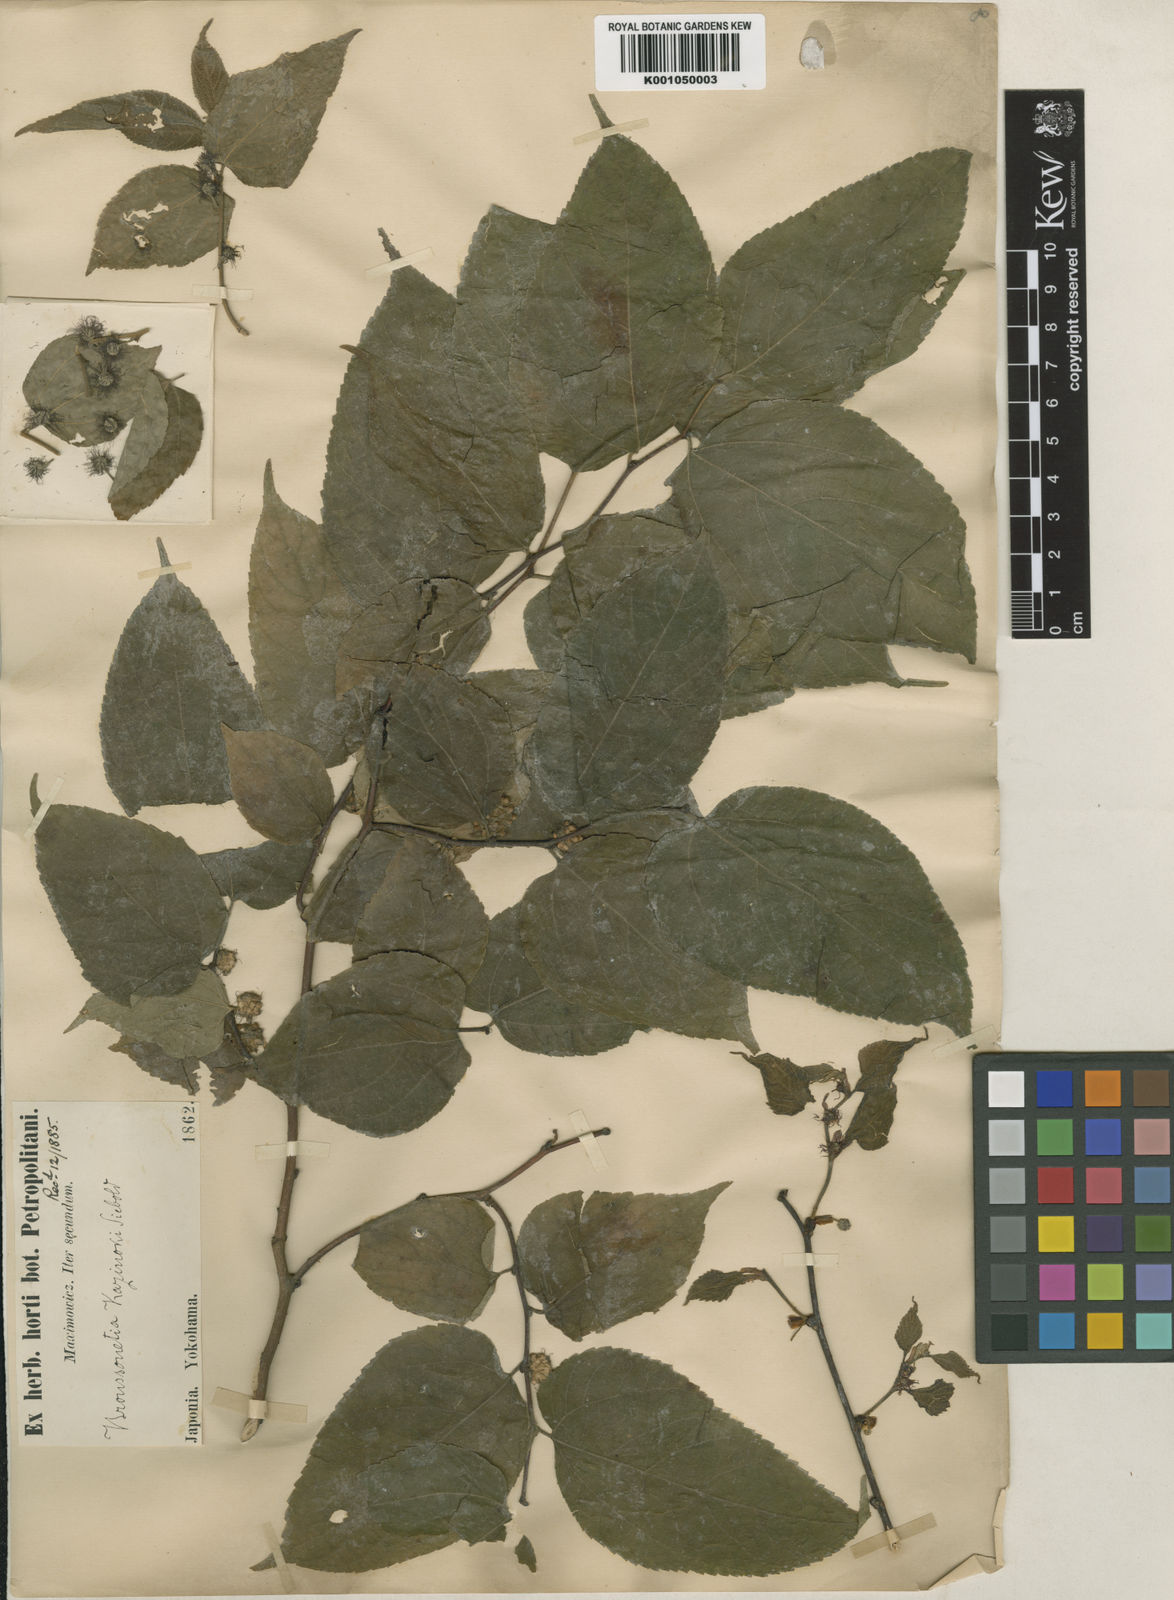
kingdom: Plantae
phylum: Tracheophyta
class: Magnoliopsida
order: Rosales
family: Moraceae
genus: Broussonetia
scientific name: Broussonetia kazinoki
